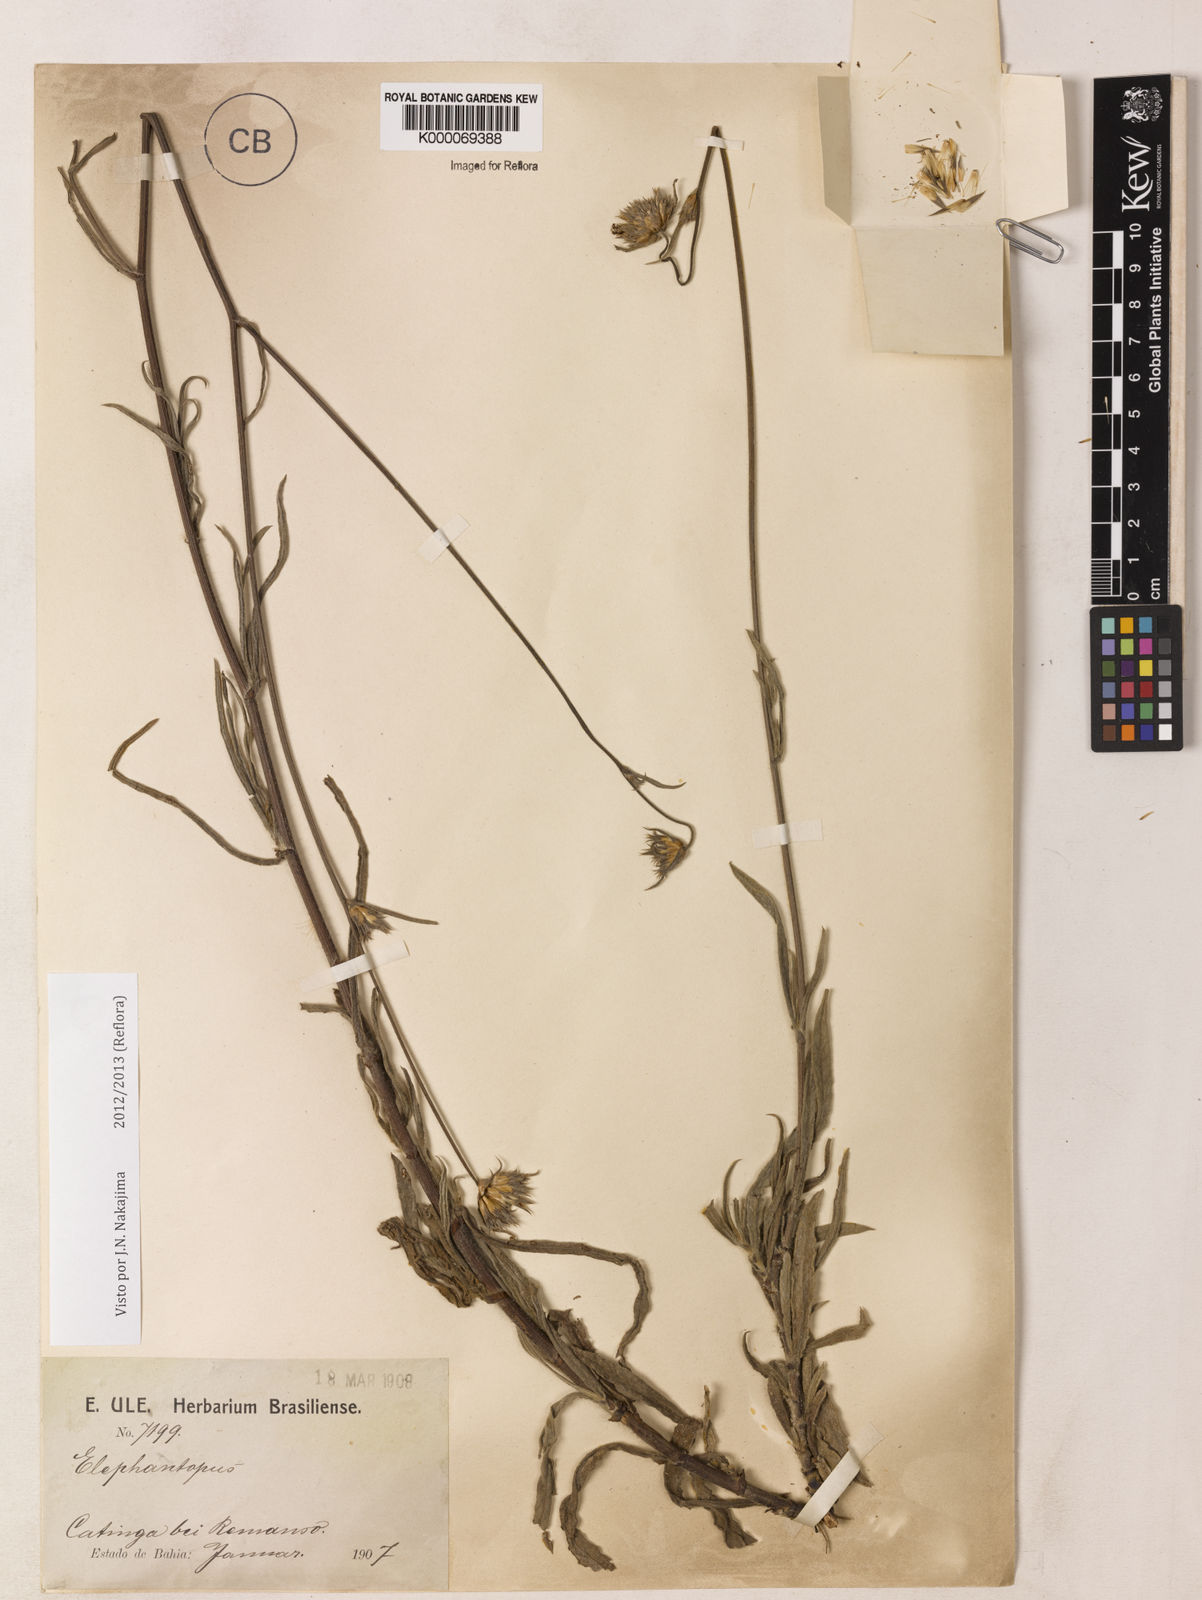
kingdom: Plantae
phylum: Tracheophyta
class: Magnoliopsida
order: Asterales
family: Asteraceae
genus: Elephantopus
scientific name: Elephantopus hirtiflorus
